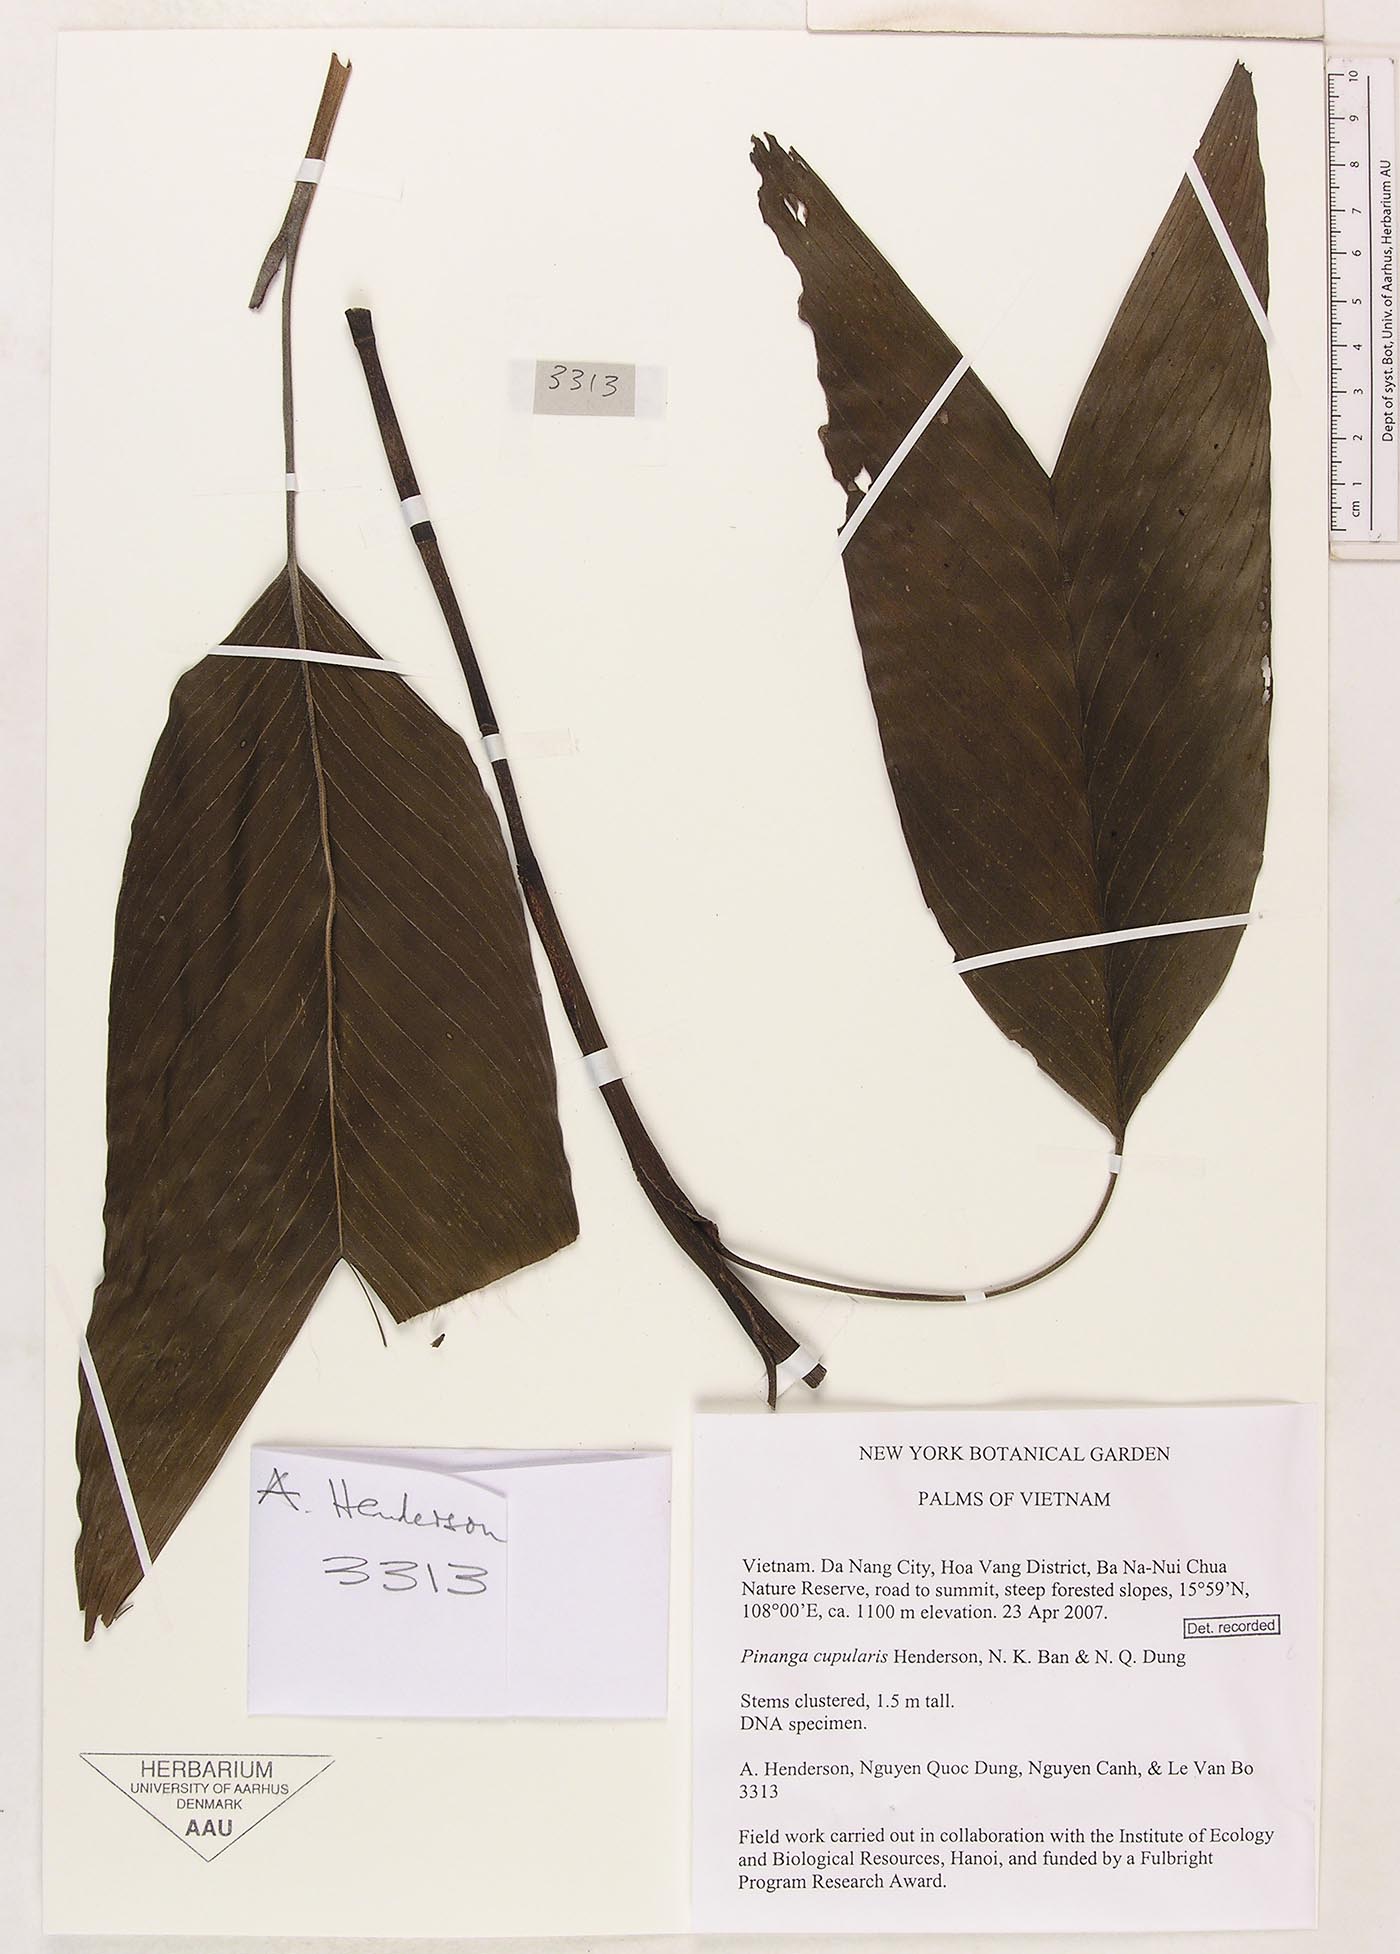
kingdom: Plantae
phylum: Tracheophyta
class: Liliopsida
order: Arecales
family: Arecaceae
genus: Pinanga
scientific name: Pinanga cupularis
